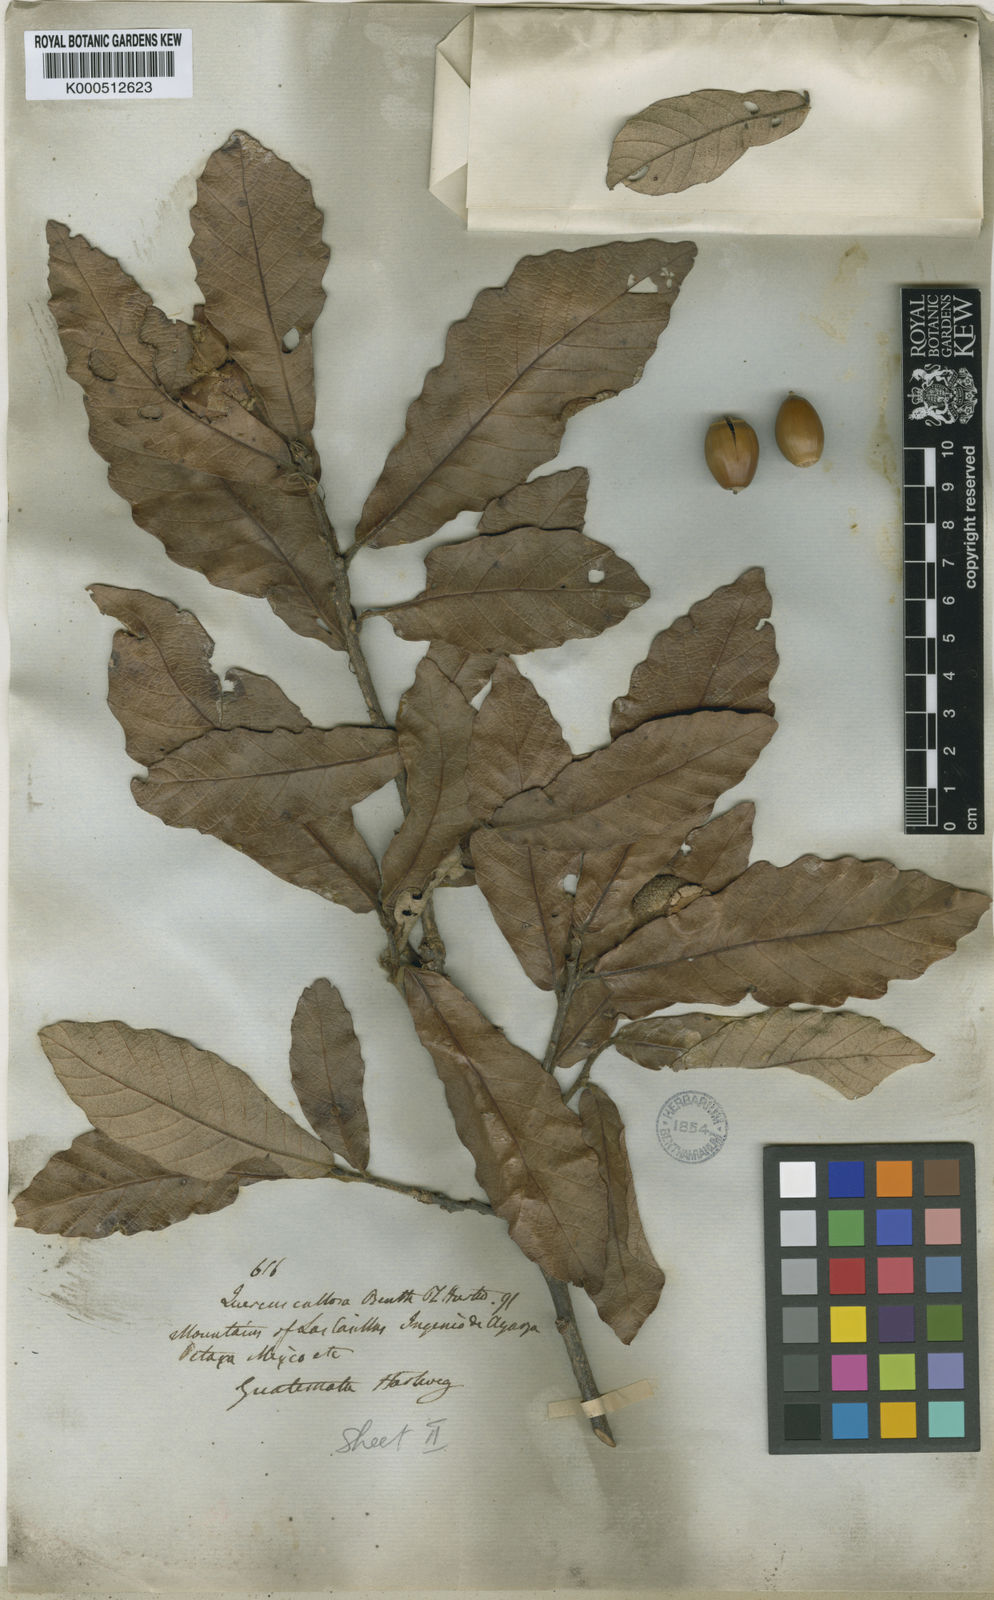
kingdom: Plantae
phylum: Tracheophyta
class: Magnoliopsida
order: Fagales
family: Fagaceae
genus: Quercus
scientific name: Quercus peduncularis
